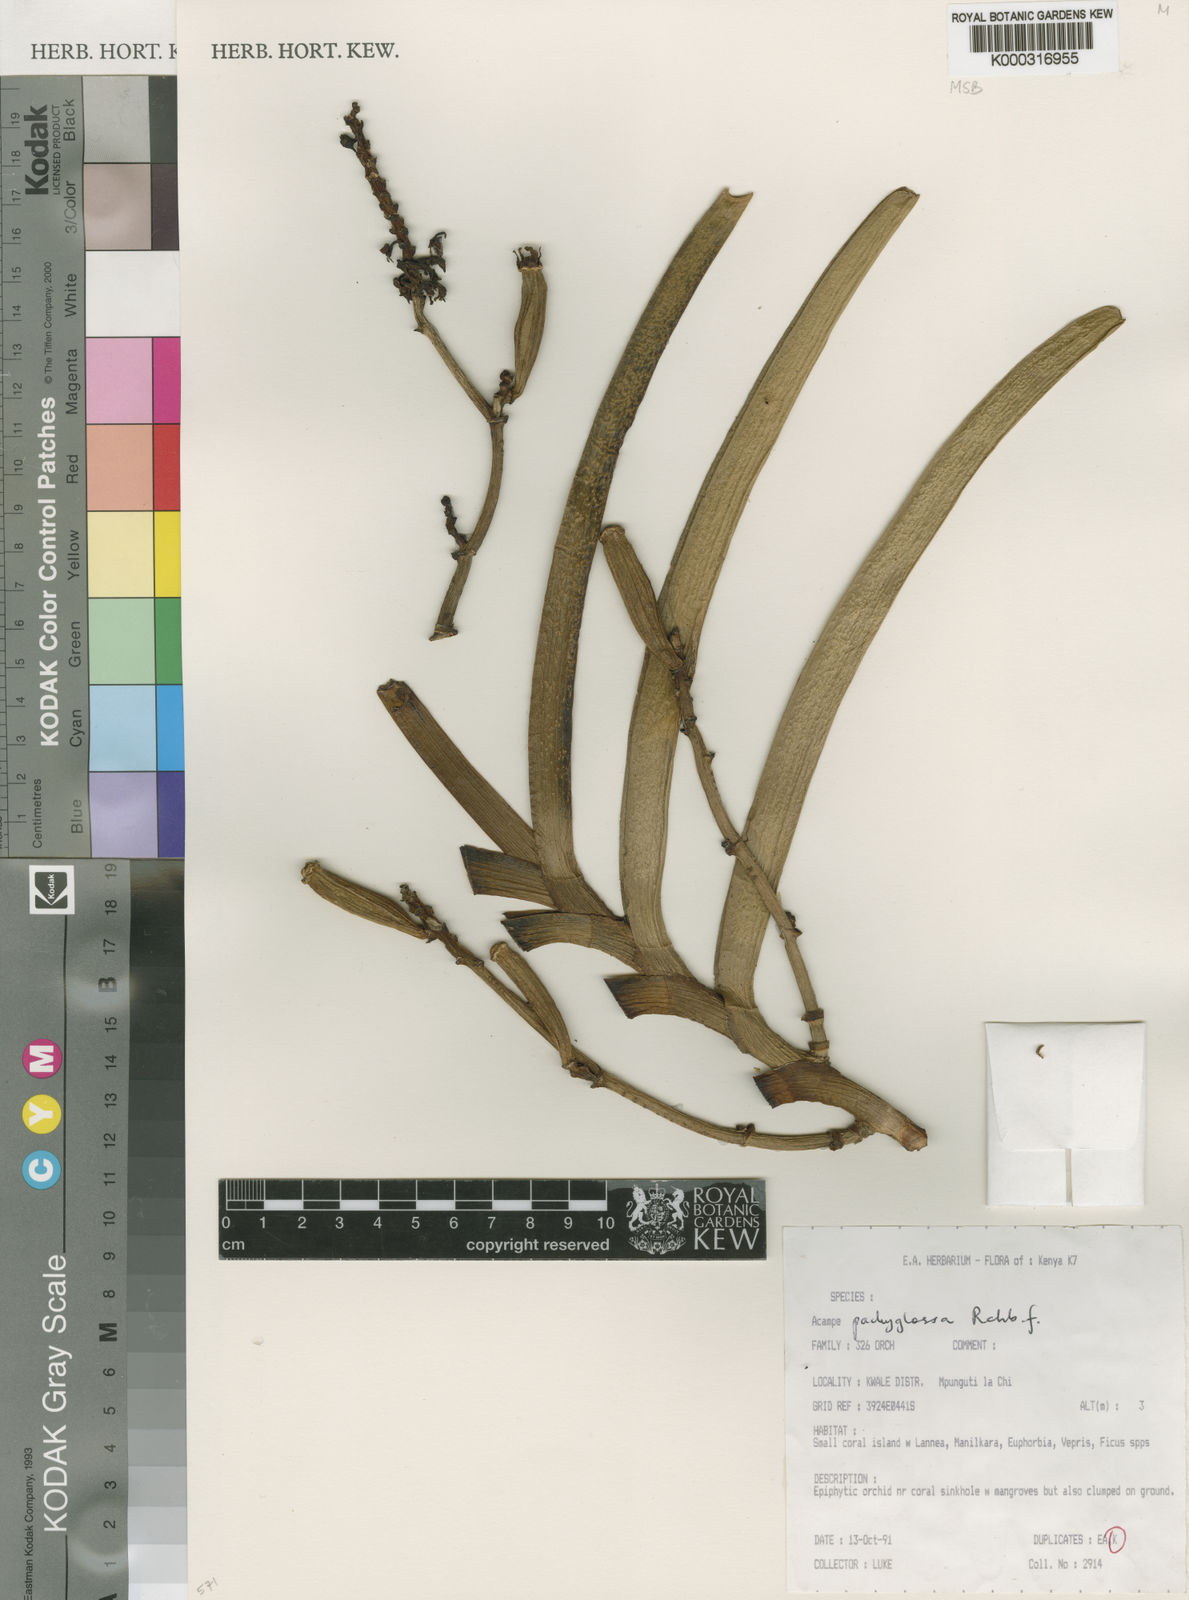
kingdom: Plantae
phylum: Tracheophyta
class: Liliopsida
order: Asparagales
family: Orchidaceae
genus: Acampe
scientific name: Acampe pachyglossa
